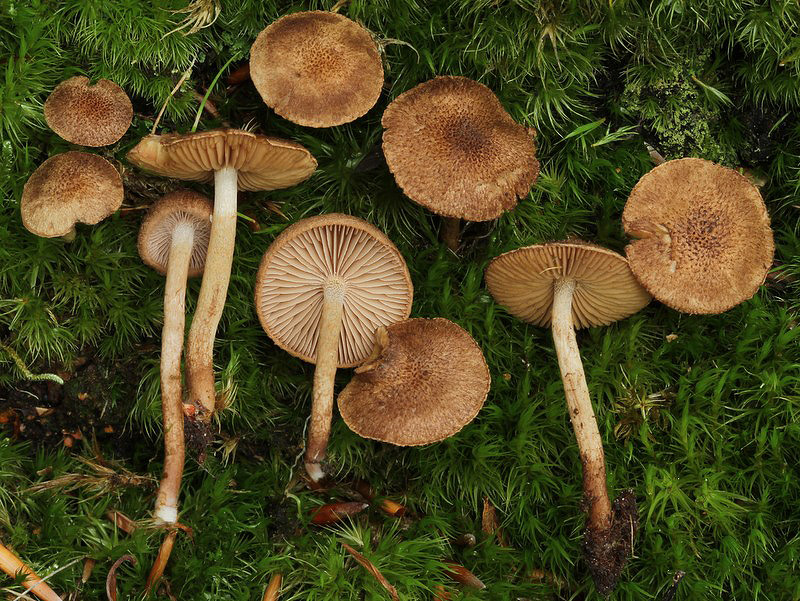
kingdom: Fungi
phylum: Basidiomycota
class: Agaricomycetes
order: Agaricales
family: Inocybaceae
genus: Inocybe
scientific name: Inocybe lanuginosa
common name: uldskællet trævlhat
